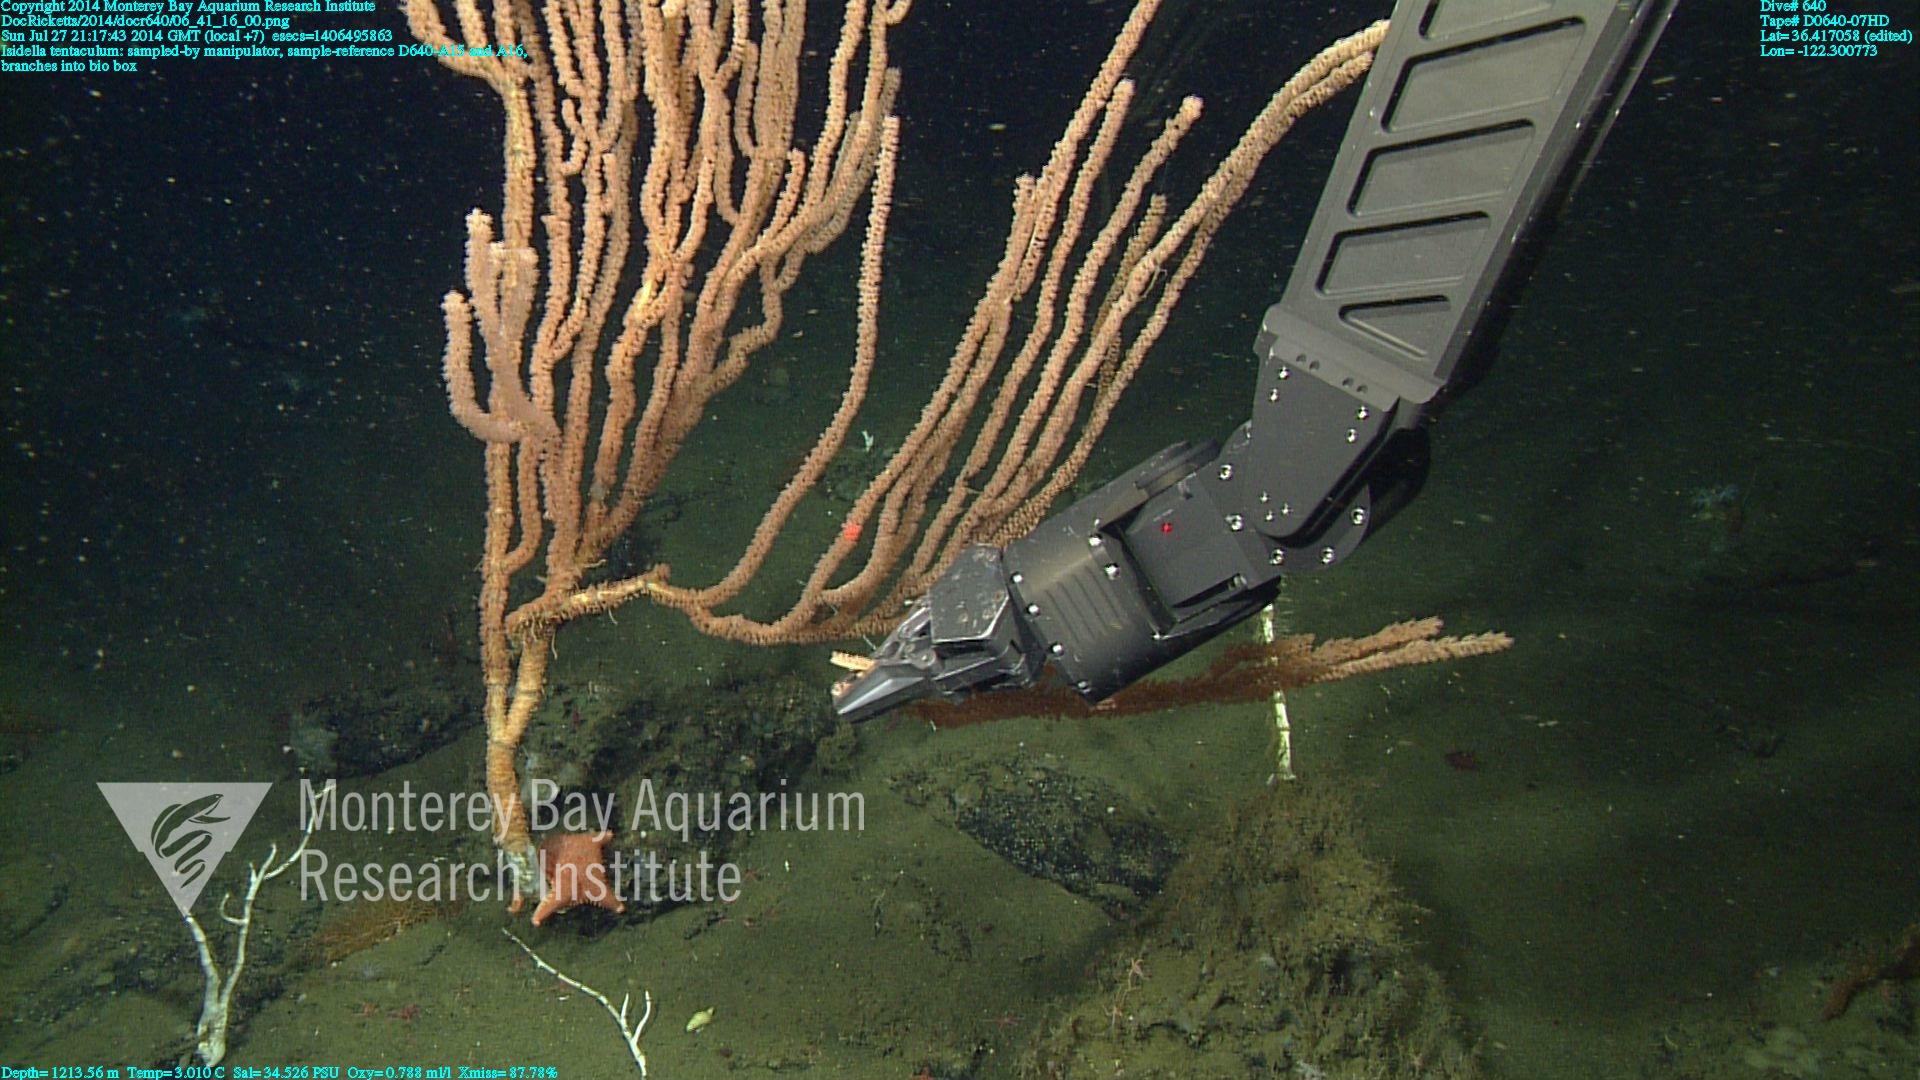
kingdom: Animalia
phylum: Cnidaria
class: Anthozoa
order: Scleralcyonacea
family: Keratoisididae
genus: Isidella
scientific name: Isidella tentaculum
